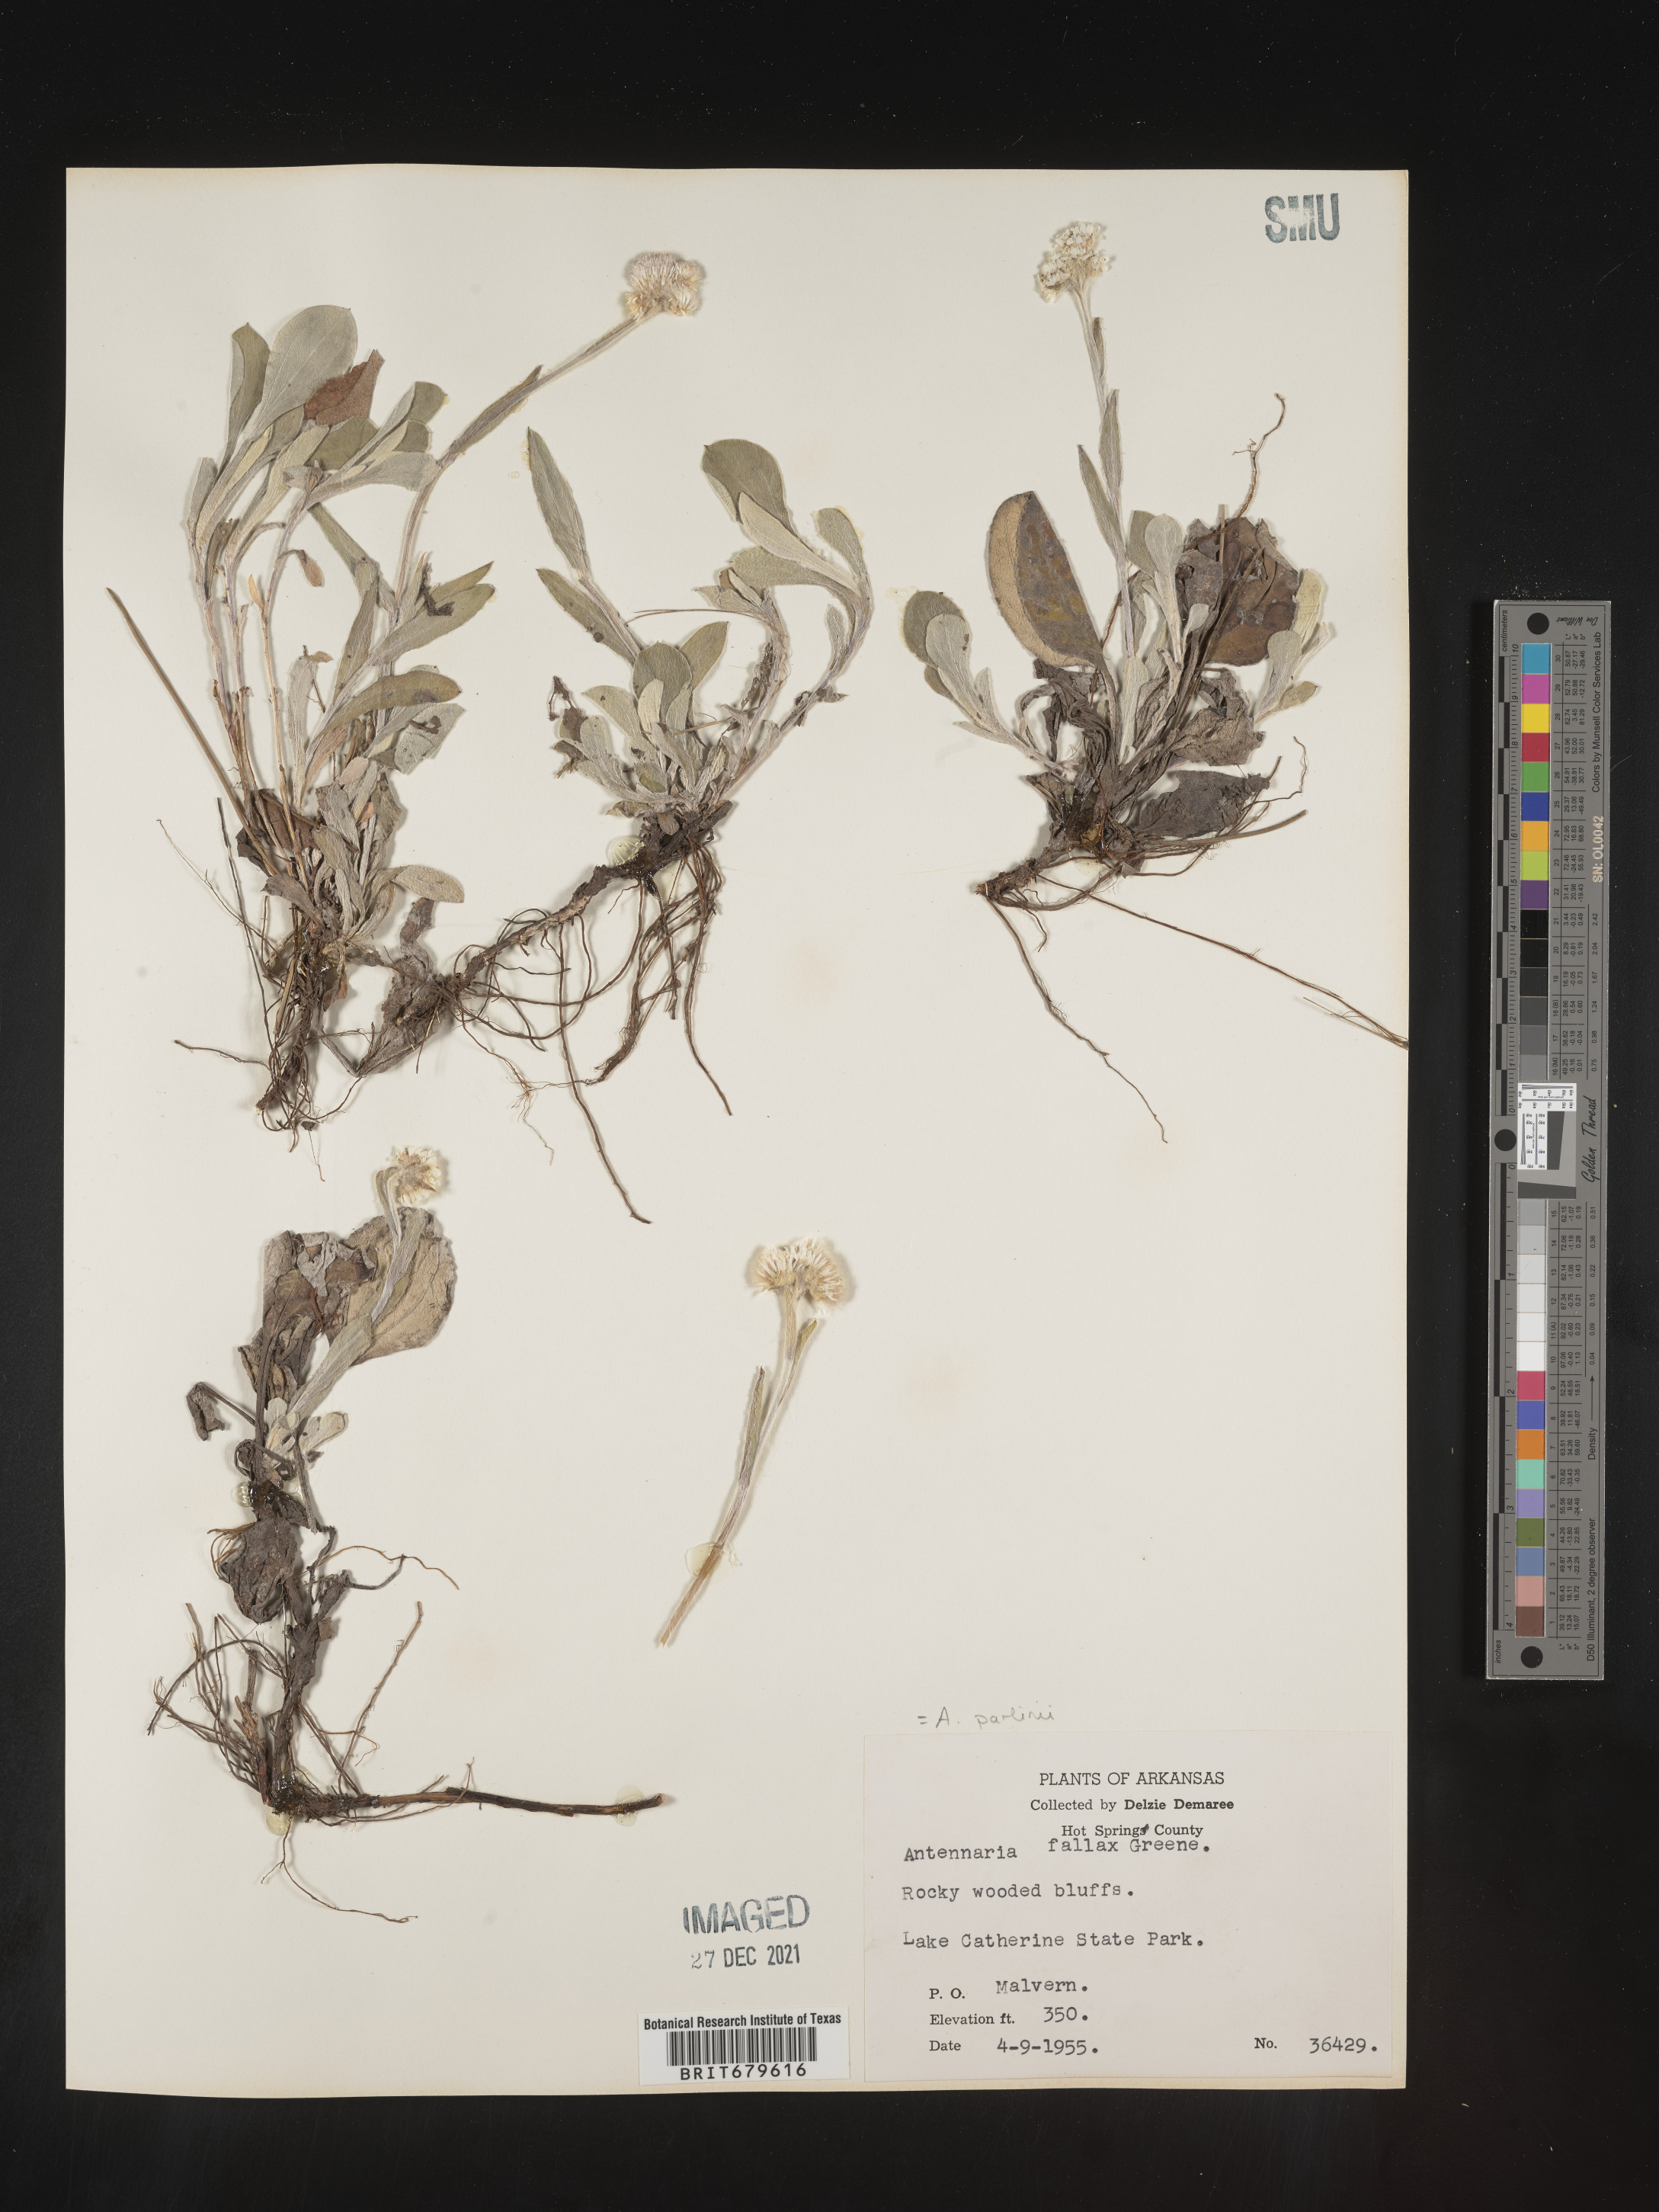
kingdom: Plantae
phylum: Tracheophyta
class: Magnoliopsida
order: Asterales
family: Asteraceae
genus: Antennaria
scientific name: Antennaria parlinii
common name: Parlin's pussytoes
